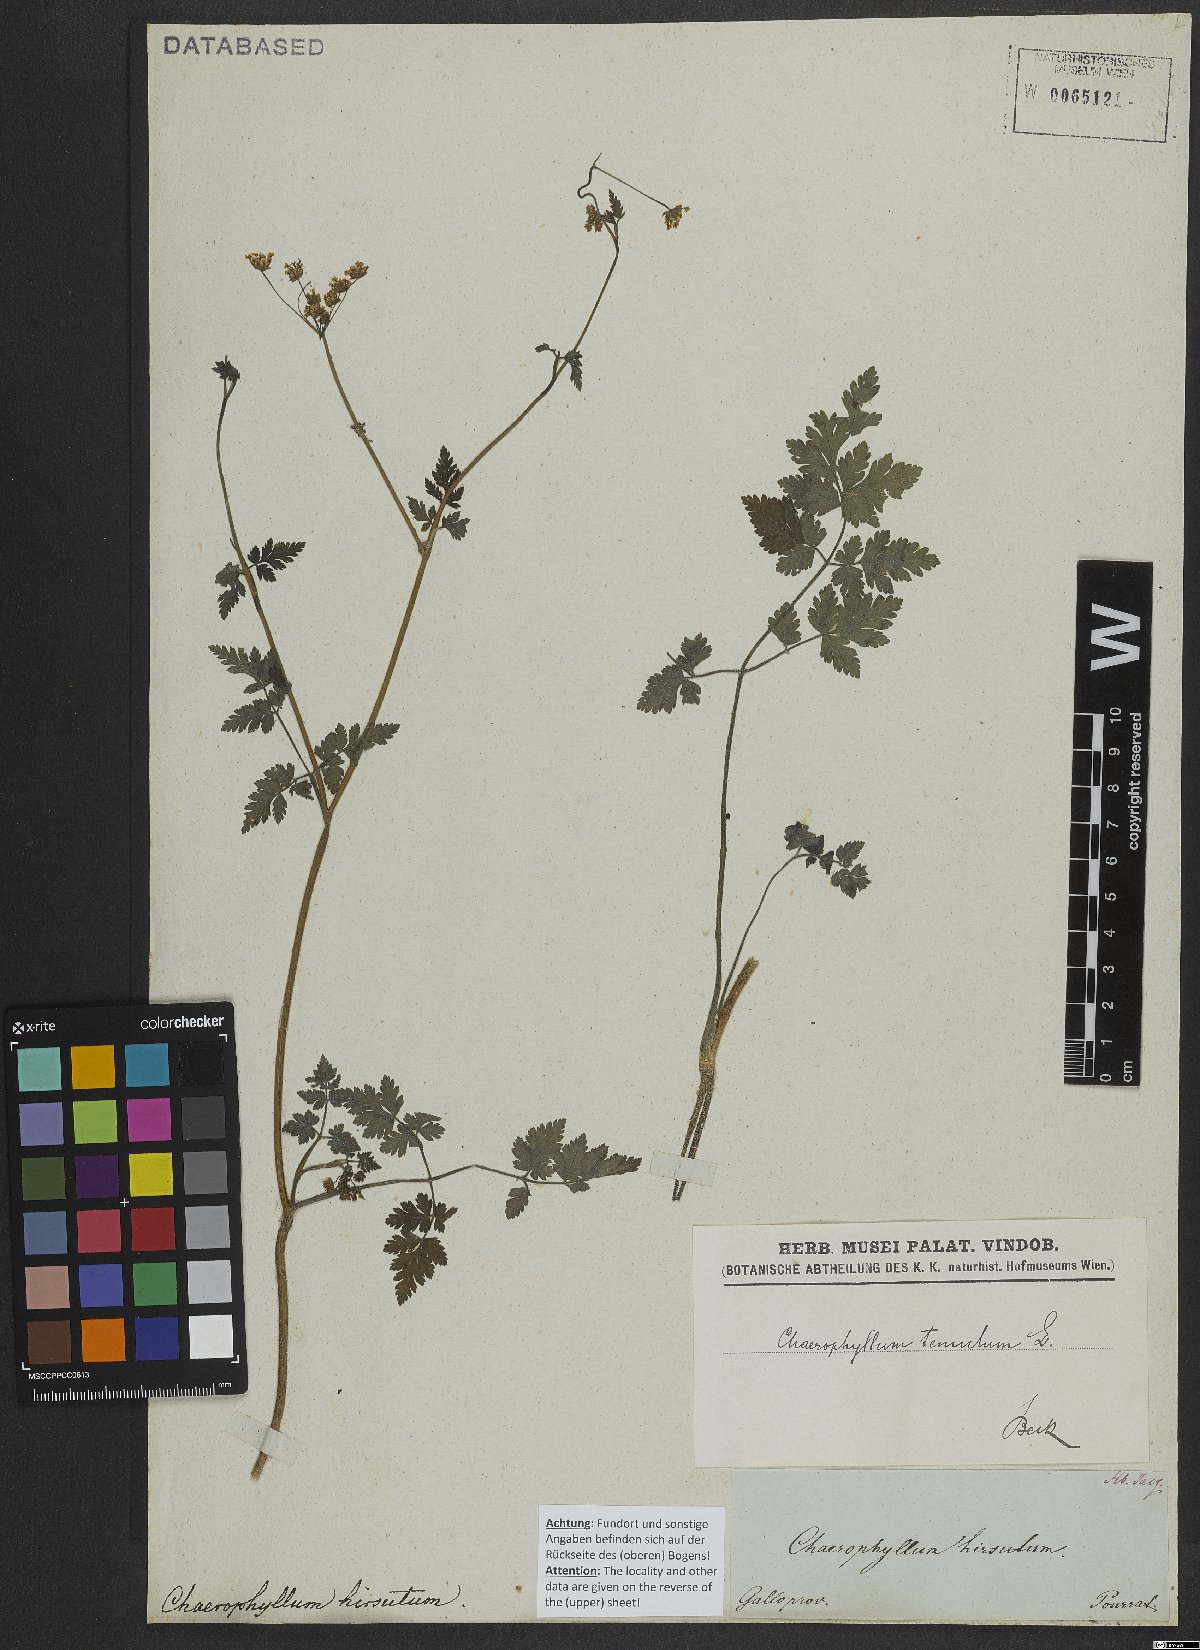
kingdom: Plantae
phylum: Tracheophyta
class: Magnoliopsida
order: Apiales
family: Apiaceae
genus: Chaerophyllum
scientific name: Chaerophyllum temulum
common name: Rough chervil
